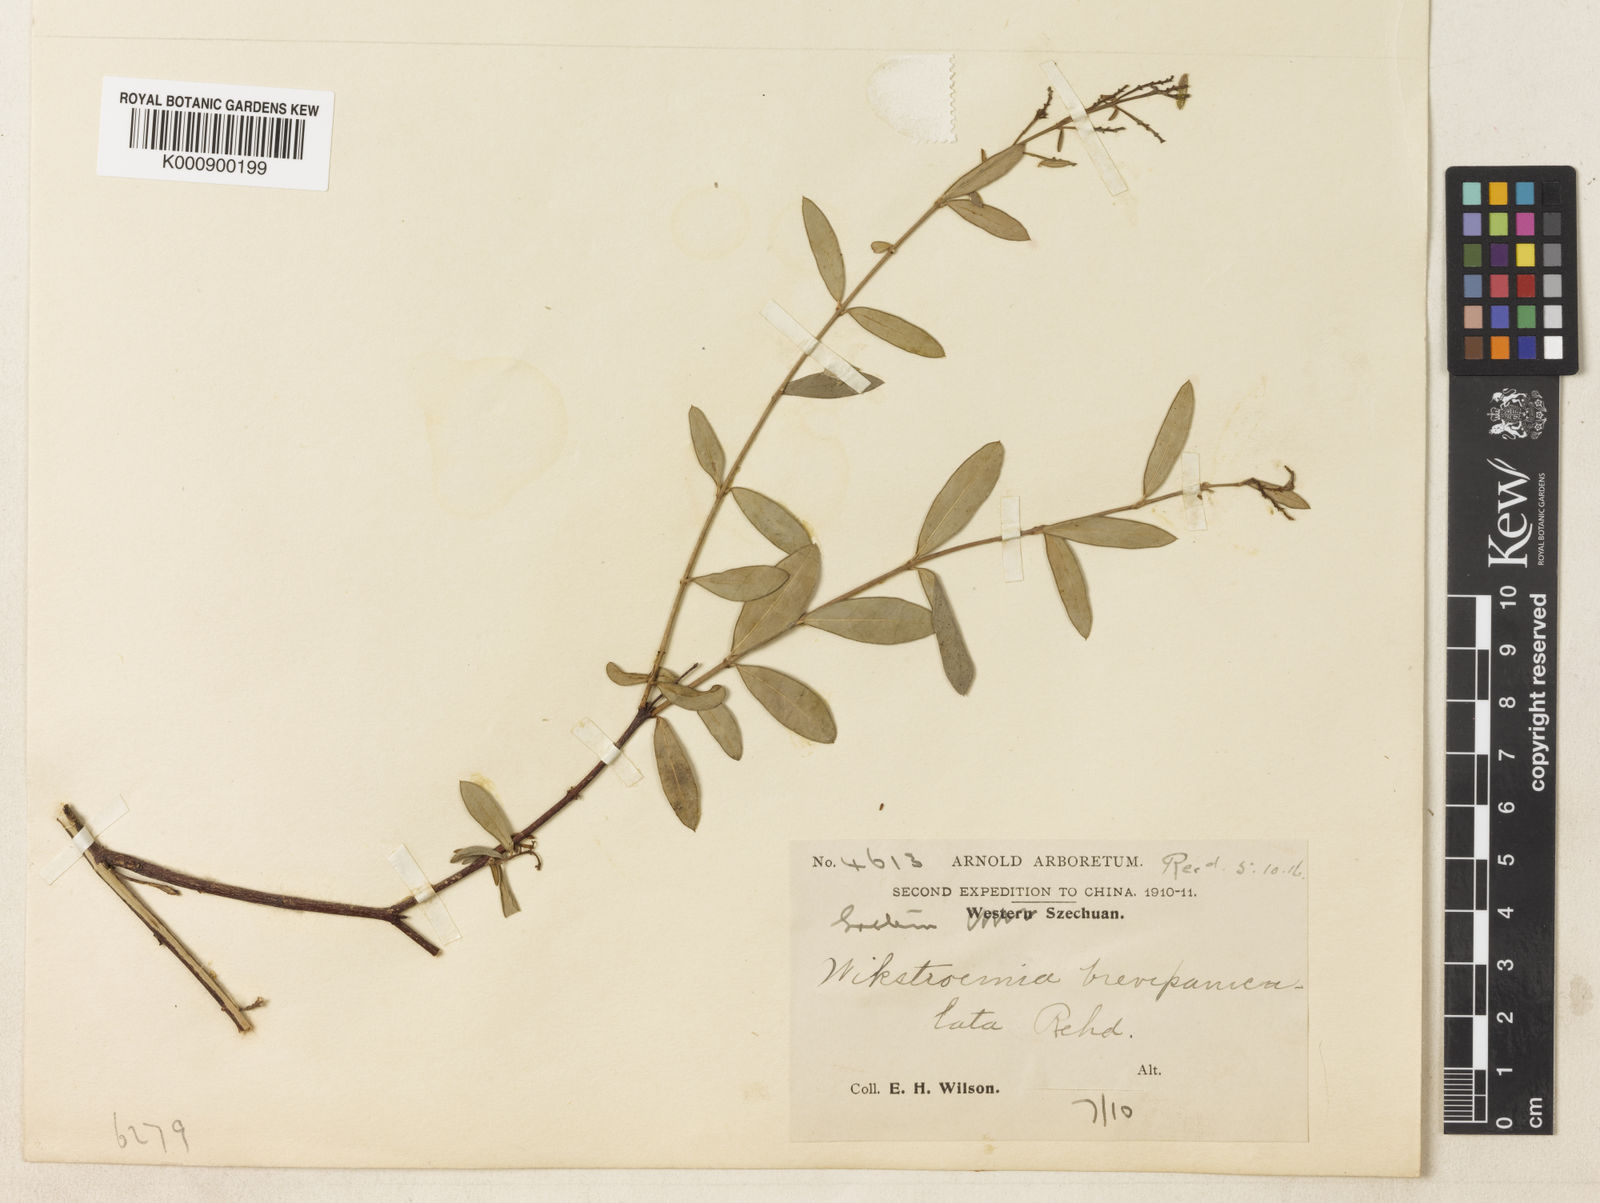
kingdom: Plantae
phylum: Tracheophyta
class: Magnoliopsida
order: Malvales
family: Thymelaeaceae
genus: Wikstroemia
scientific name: Wikstroemia micrantha
